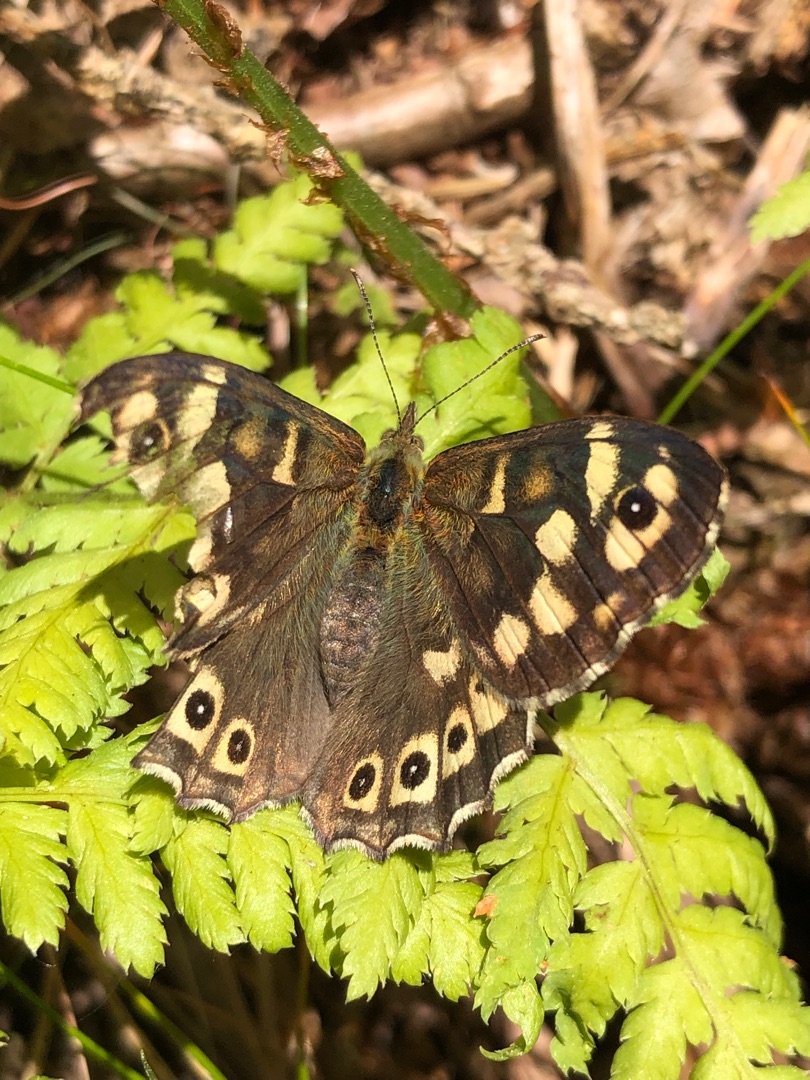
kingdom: Animalia
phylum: Arthropoda
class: Insecta
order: Lepidoptera
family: Nymphalidae
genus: Pararge
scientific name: Pararge aegeria
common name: Skovrandøje
